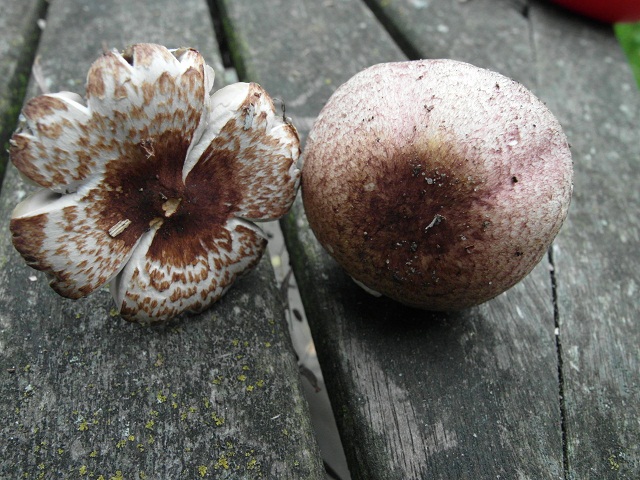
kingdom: Fungi
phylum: Basidiomycota
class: Agaricomycetes
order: Agaricales
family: Agaricaceae
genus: Agaricus
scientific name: Agaricus dulcidulus
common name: blegrød champignon
